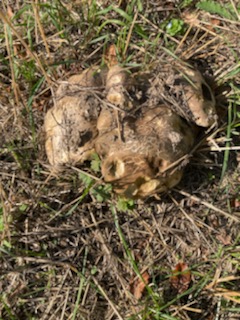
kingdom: Fungi
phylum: Basidiomycota
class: Agaricomycetes
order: Boletales
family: Boletaceae
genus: Caloboletus
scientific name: Caloboletus radicans
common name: rod-rørhat
